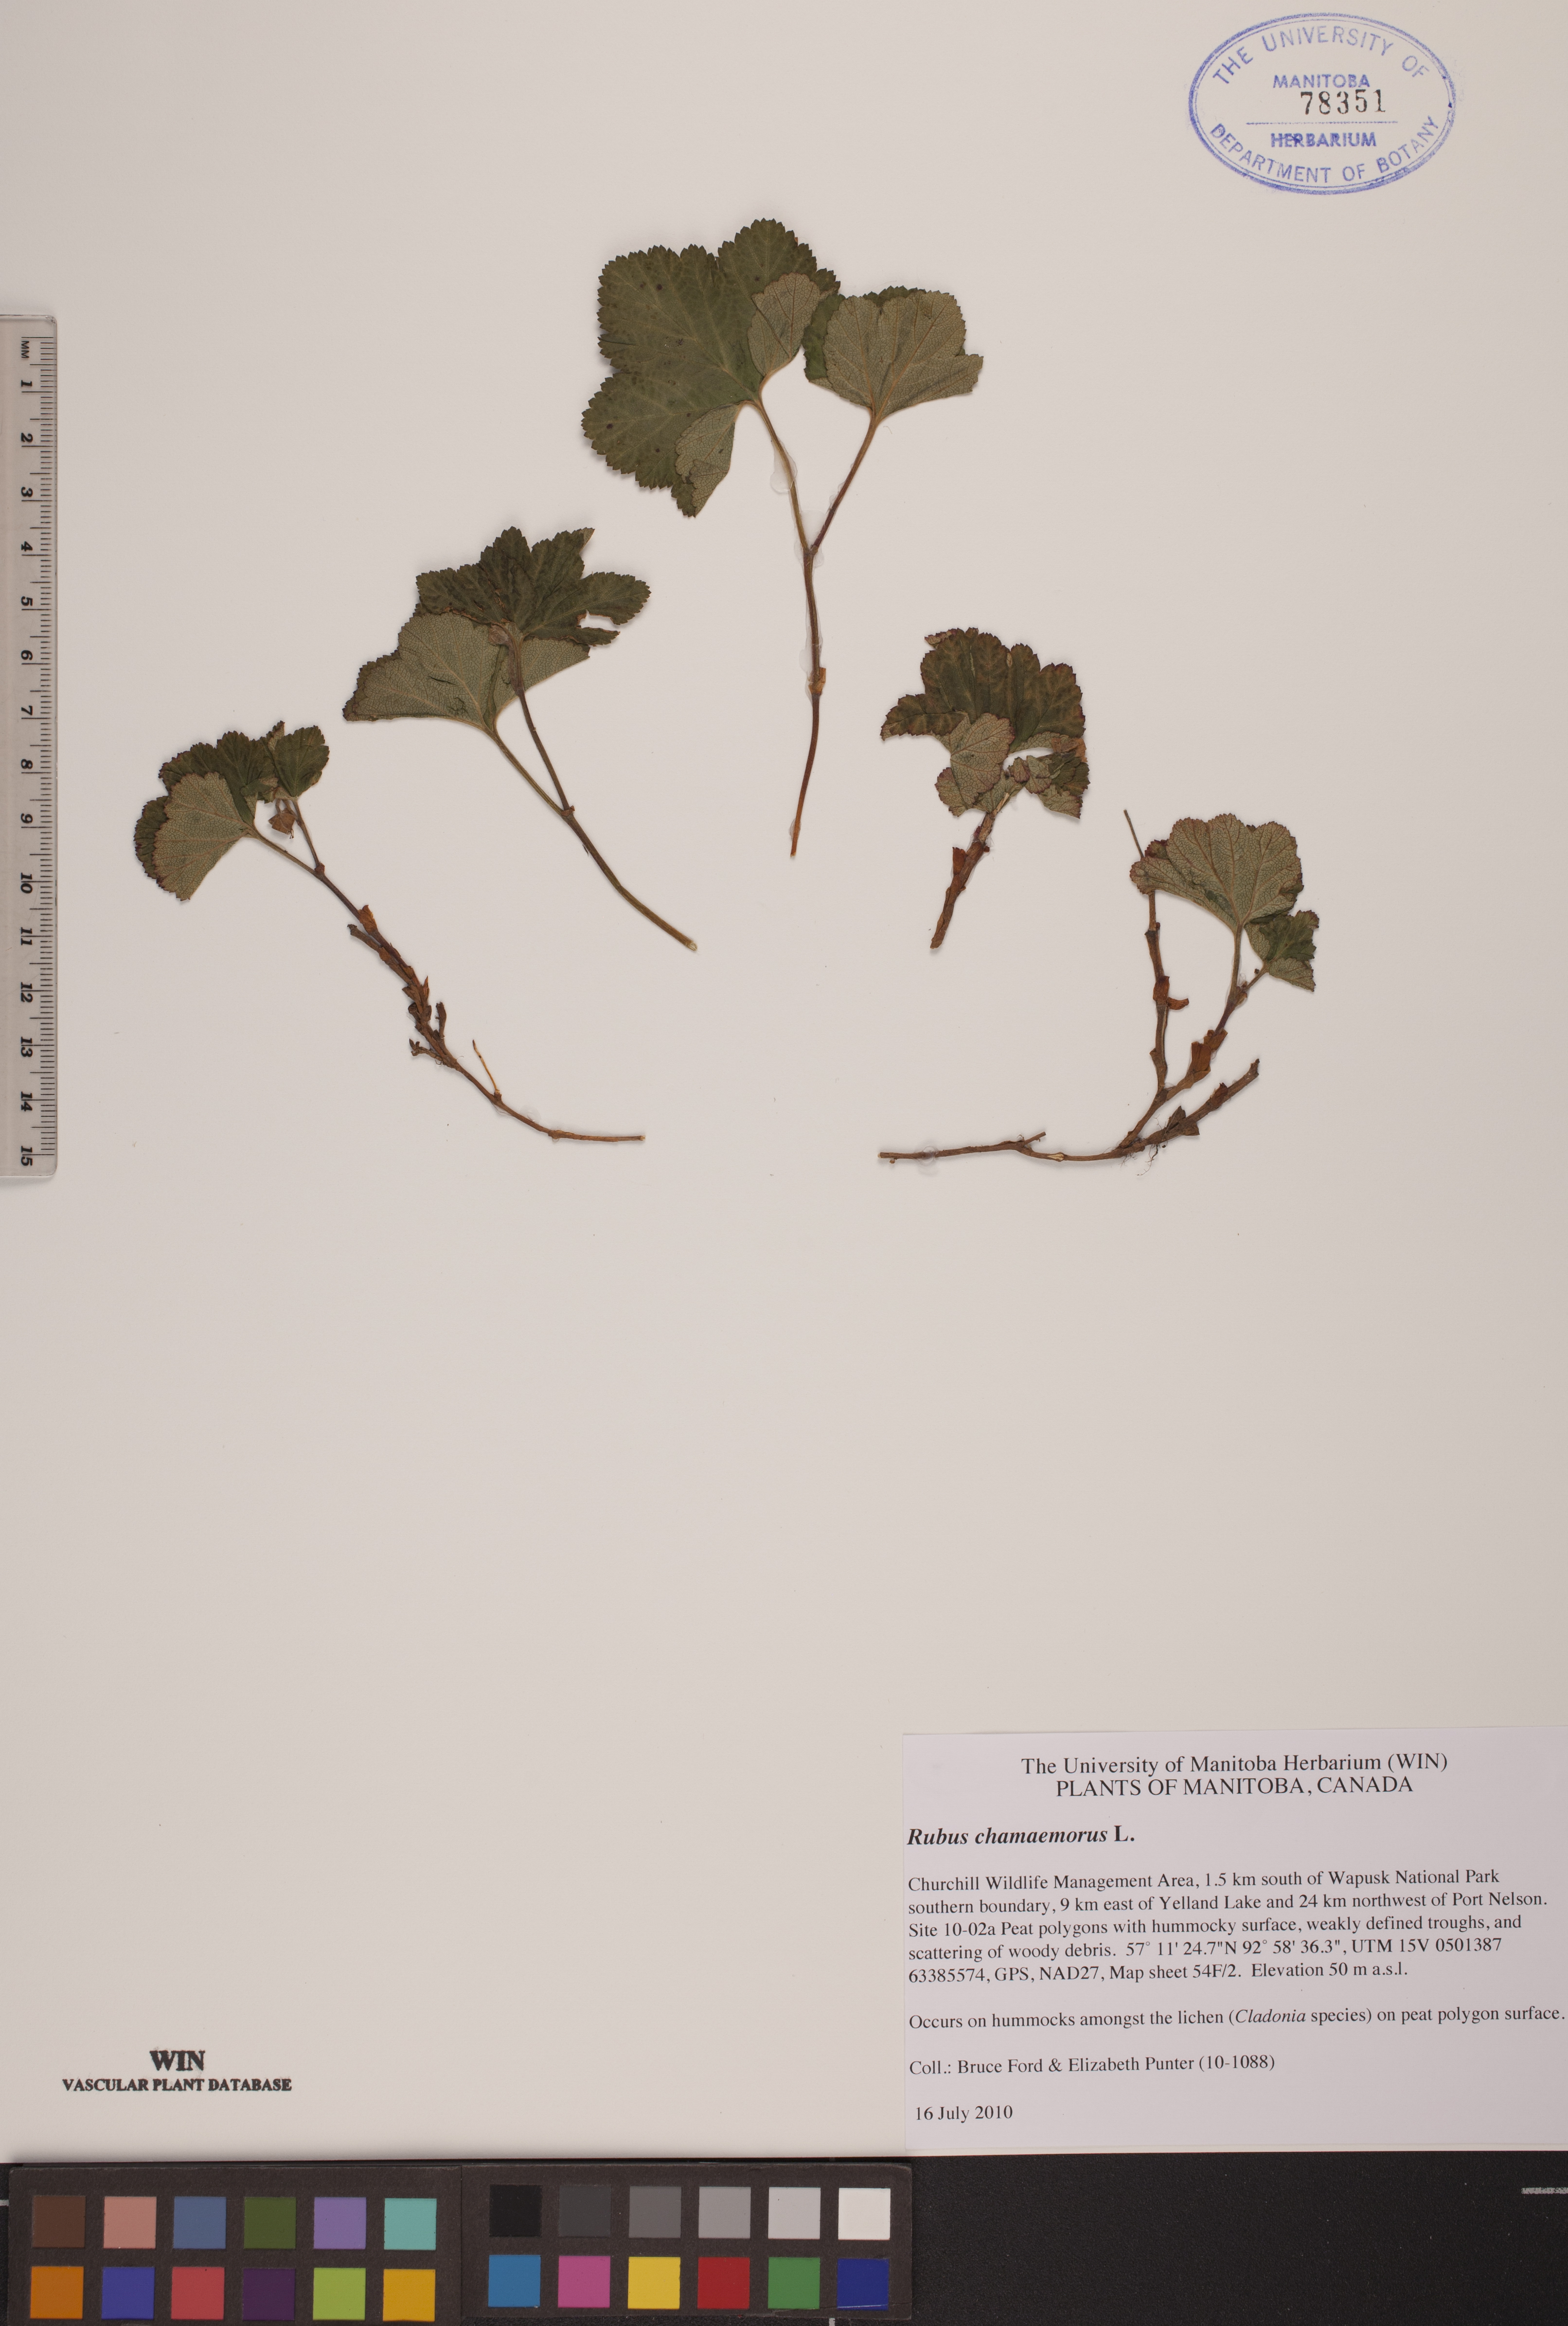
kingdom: Plantae
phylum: Tracheophyta
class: Magnoliopsida
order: Rosales
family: Rosaceae
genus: Rubus
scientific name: Rubus chamaemorus
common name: Cloudberry
